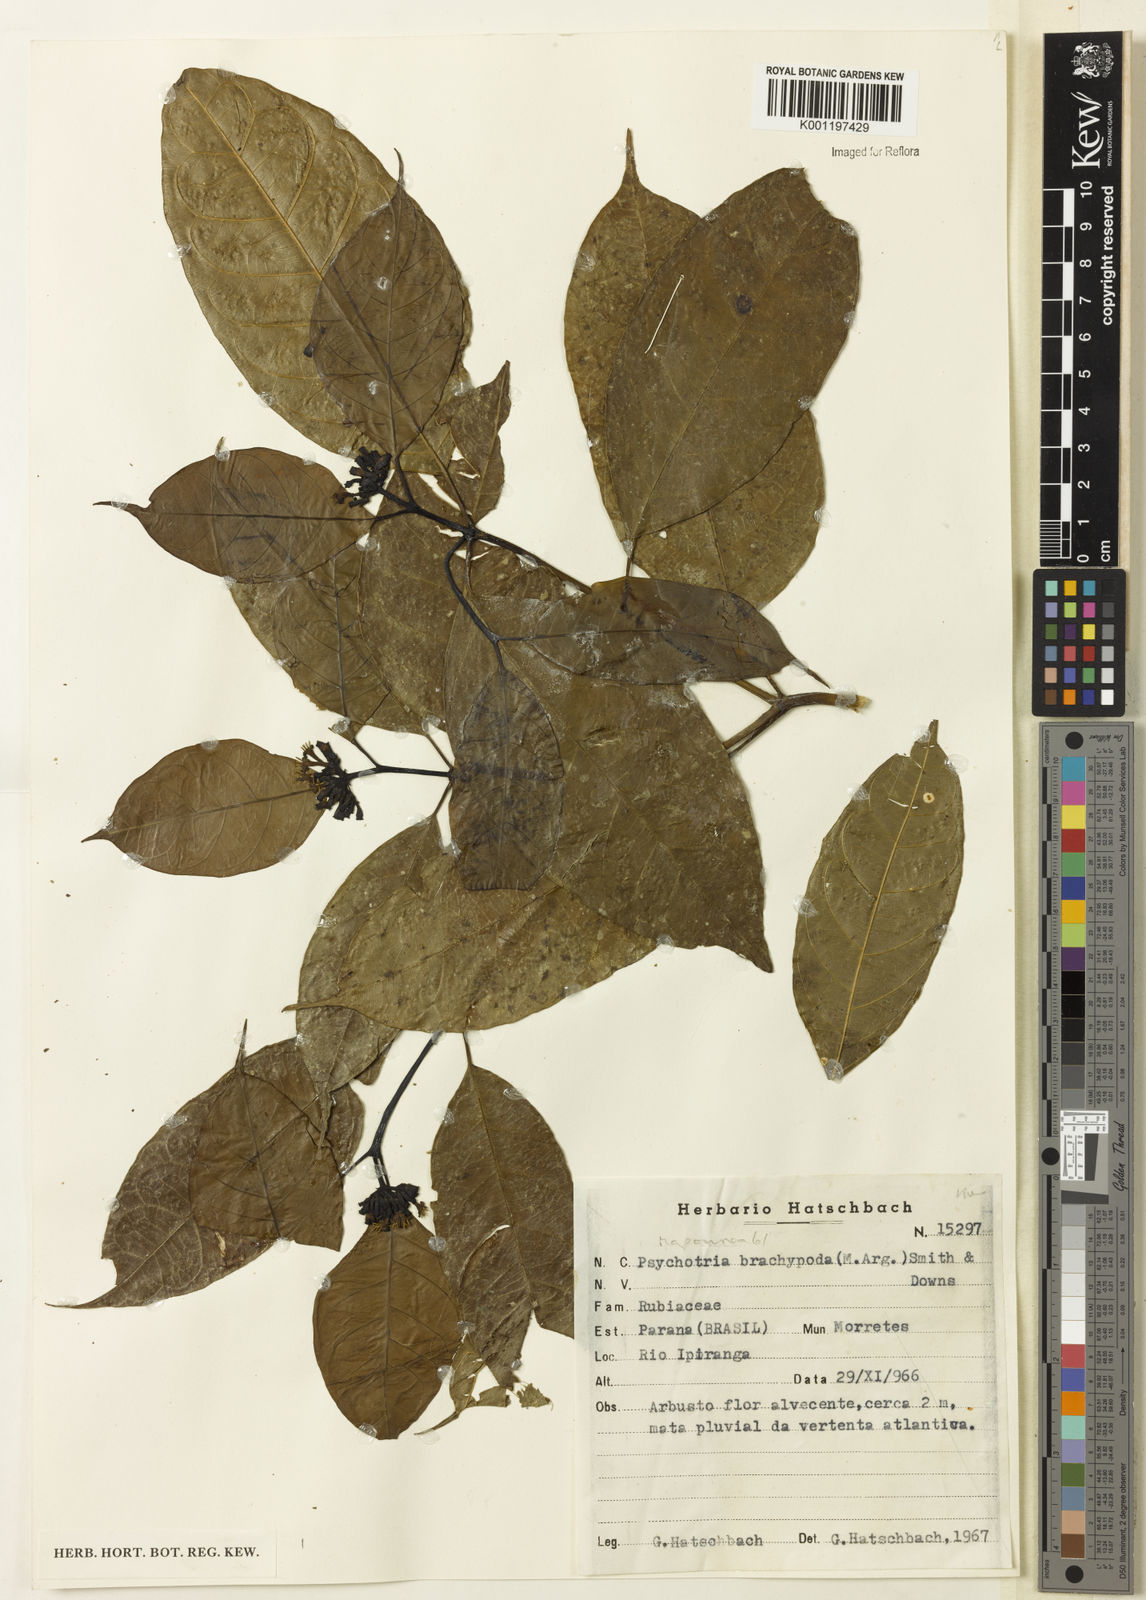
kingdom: Plantae
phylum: Tracheophyta
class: Magnoliopsida
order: Gentianales
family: Rubiaceae
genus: Psychotria
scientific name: Psychotria
